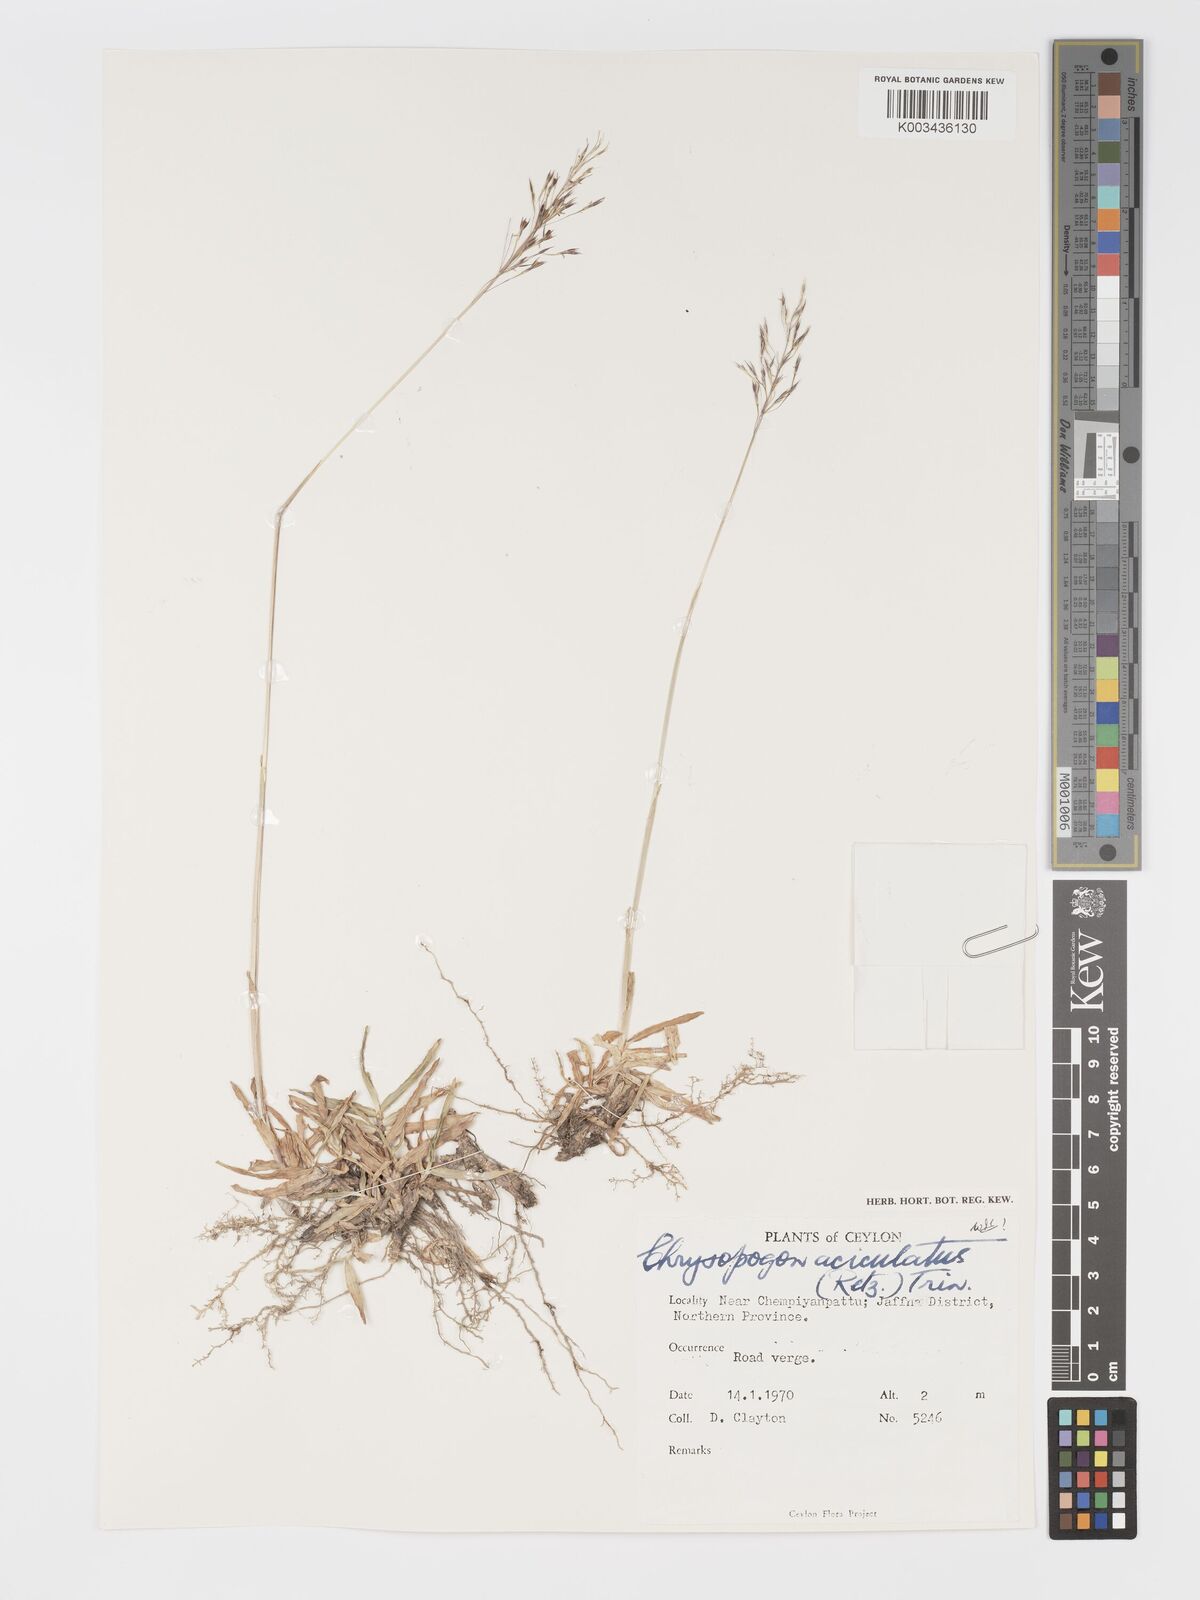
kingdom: Plantae
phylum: Tracheophyta
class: Liliopsida
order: Poales
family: Poaceae
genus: Chrysopogon
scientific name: Chrysopogon aciculatus
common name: Pilipiliula
